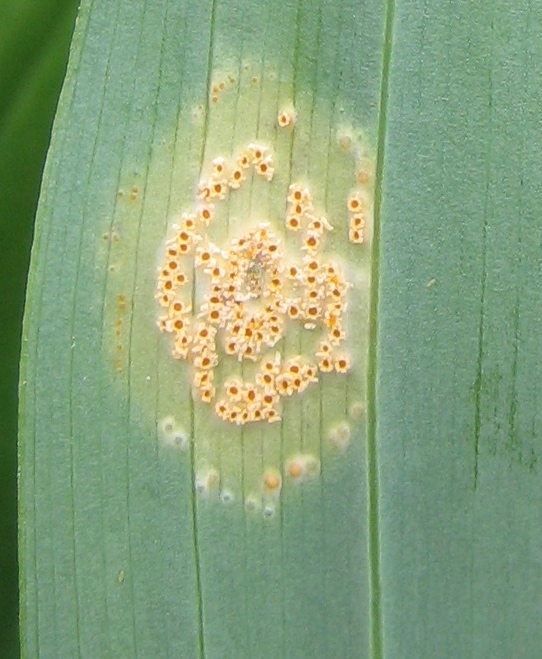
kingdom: Fungi
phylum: Basidiomycota
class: Pucciniomycetes
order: Pucciniales
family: Pucciniaceae
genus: Puccinia
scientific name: Puccinia sessilis
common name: Arum rust
